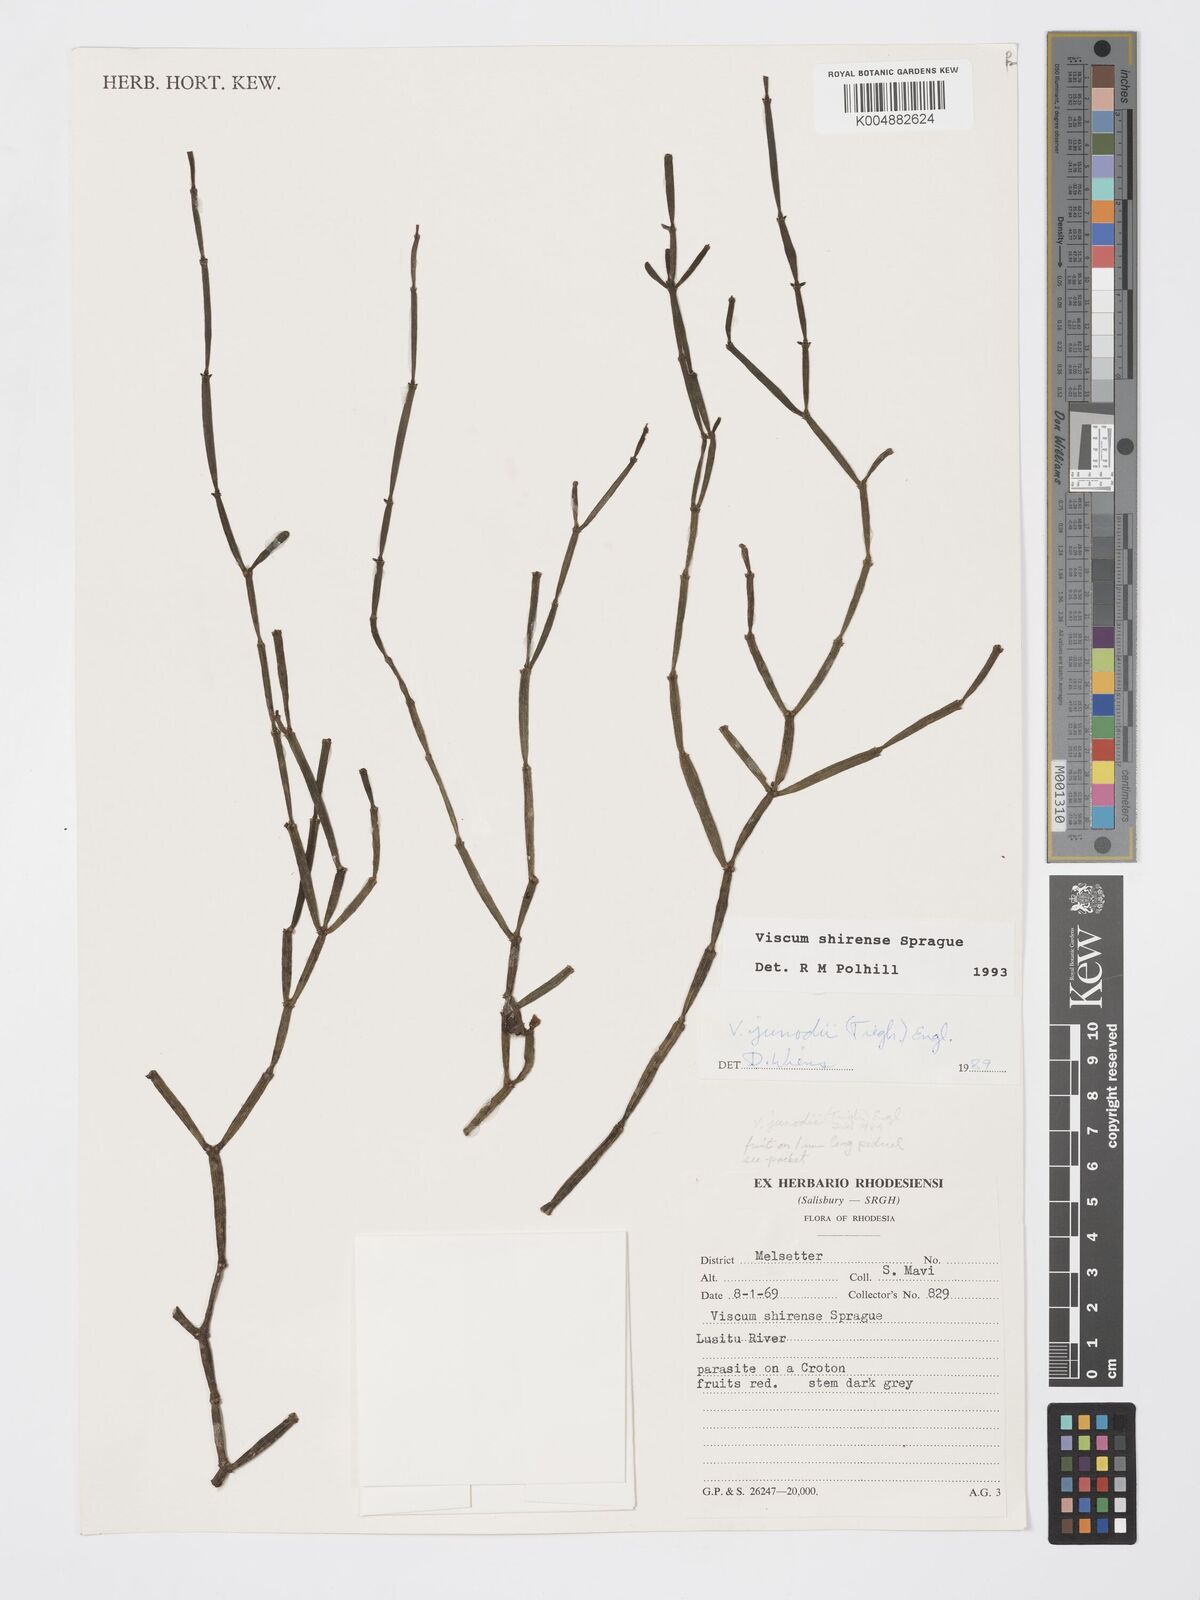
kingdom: Plantae
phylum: Tracheophyta
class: Magnoliopsida
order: Santalales
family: Viscaceae
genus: Viscum
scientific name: Viscum junodii
